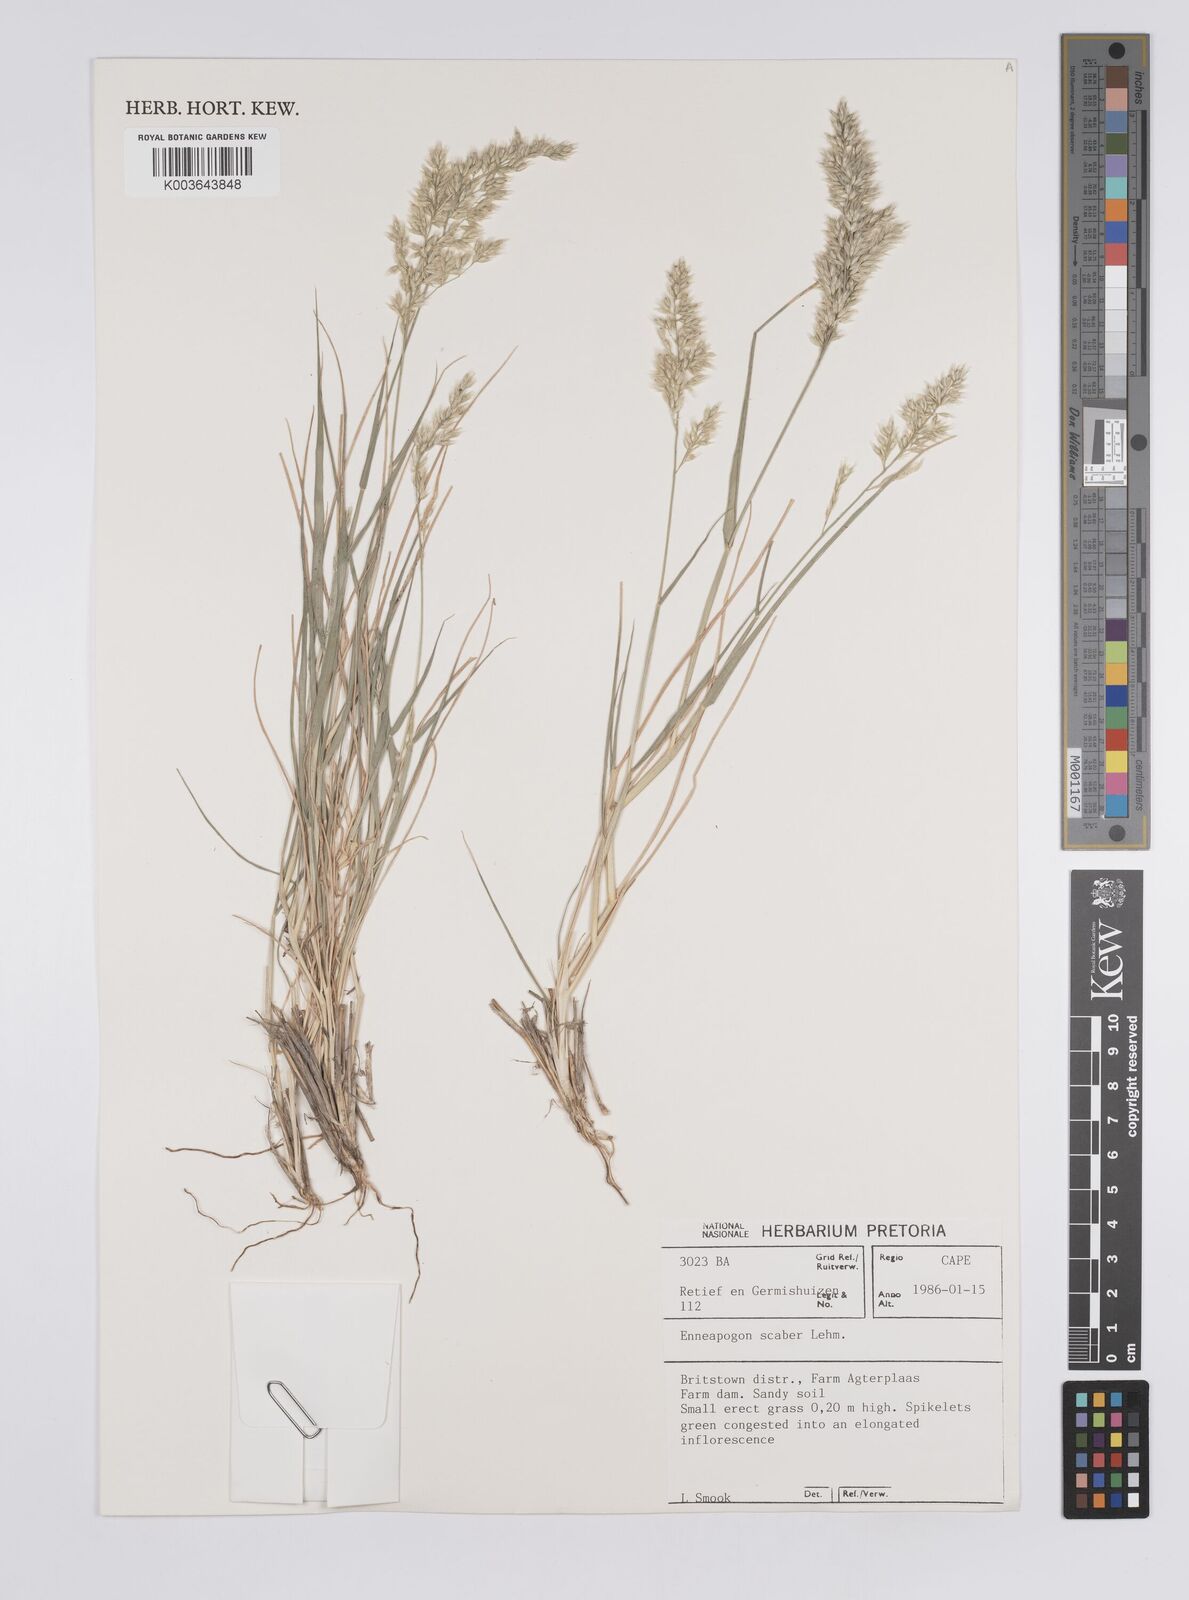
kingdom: Plantae
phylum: Tracheophyta
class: Liliopsida
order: Poales
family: Poaceae
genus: Enneapogon
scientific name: Enneapogon scaber
